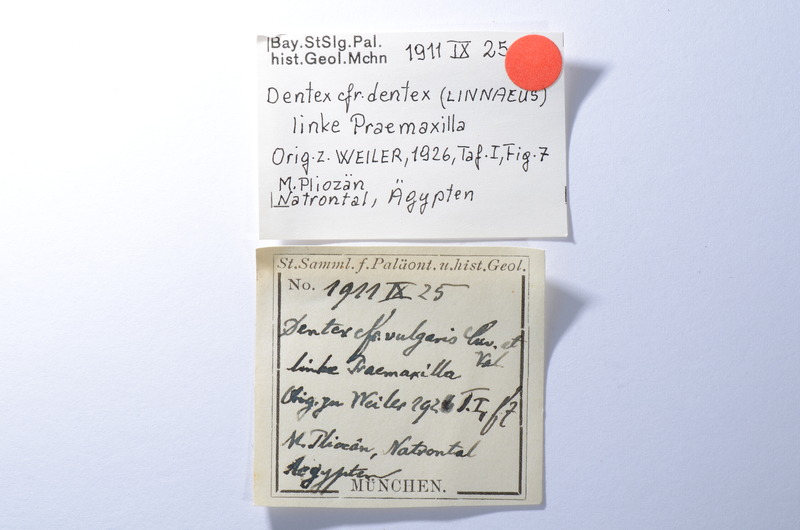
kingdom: Animalia
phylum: Chordata
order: Perciformes
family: Sparidae
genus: Dentex
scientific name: Dentex dentex
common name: Dentex
